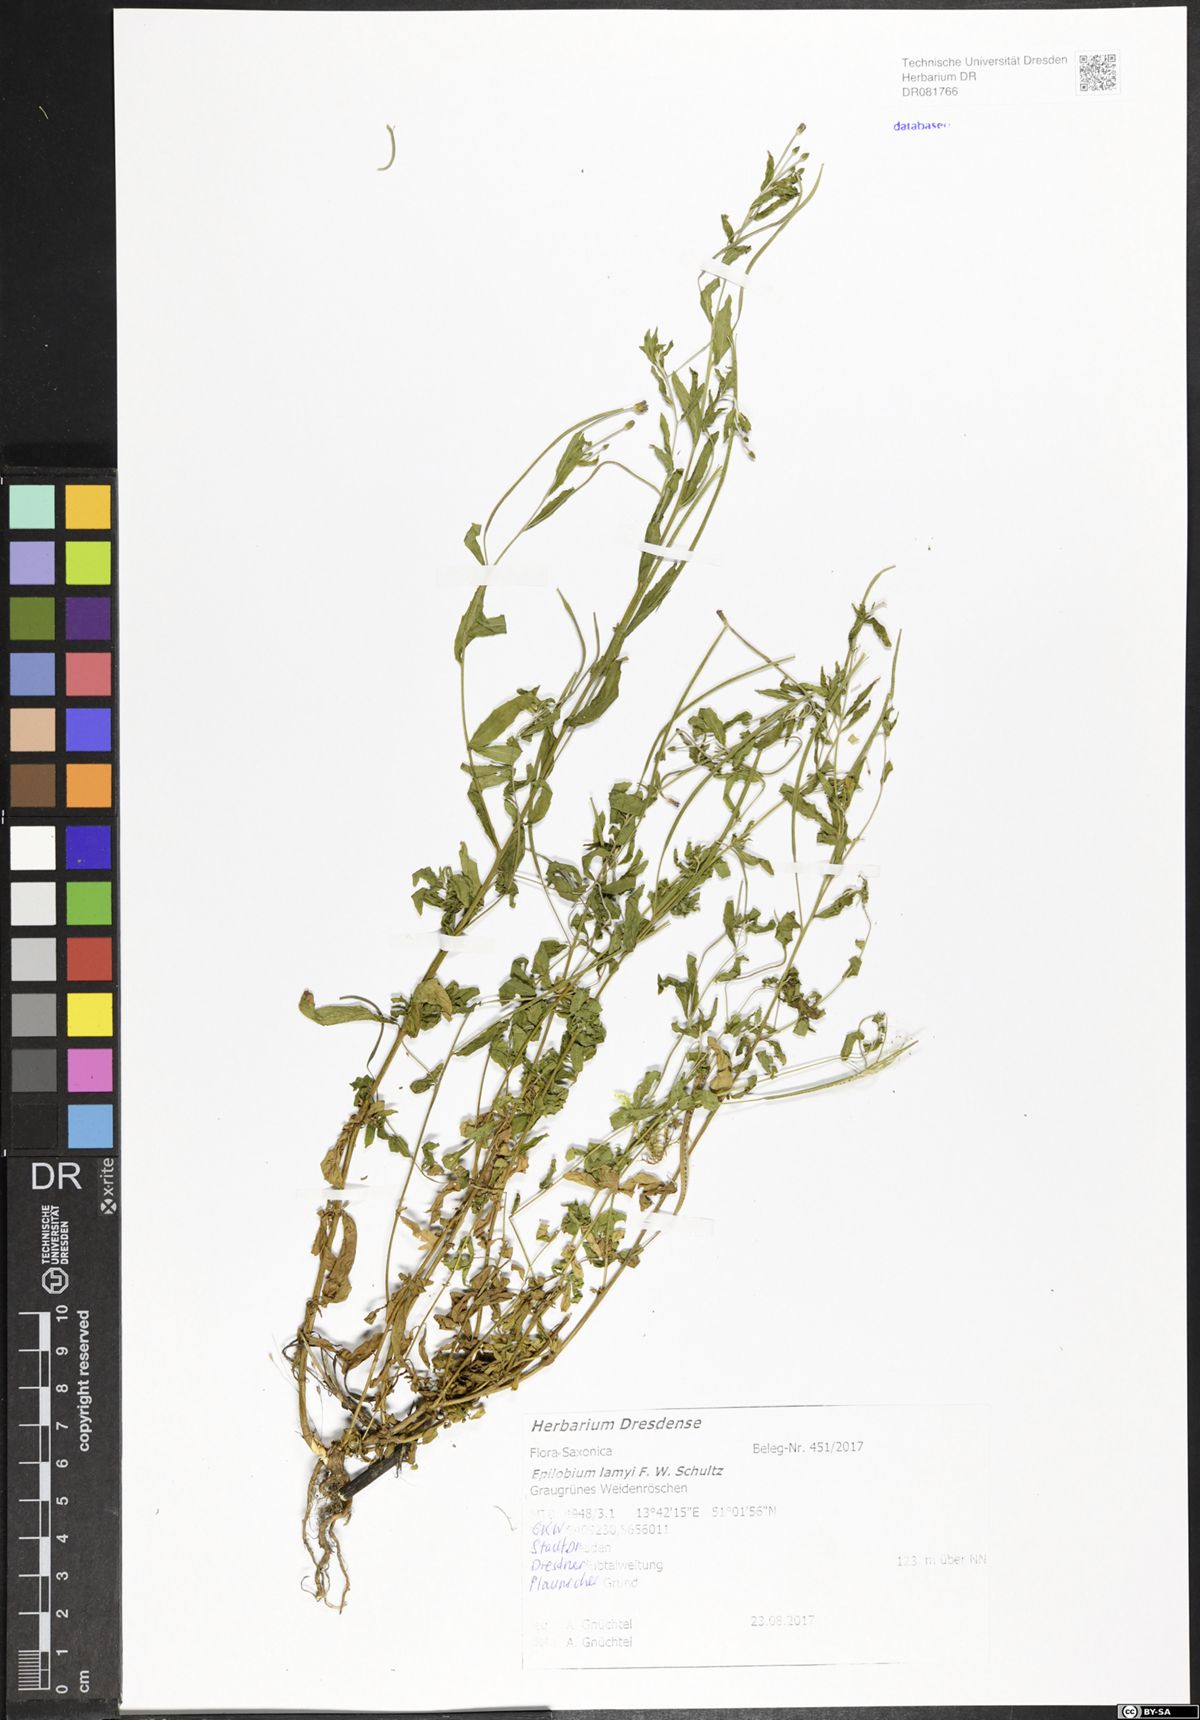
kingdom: Plantae
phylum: Tracheophyta
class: Magnoliopsida
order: Myrtales
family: Onagraceae
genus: Epilobium
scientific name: Epilobium lamyi
